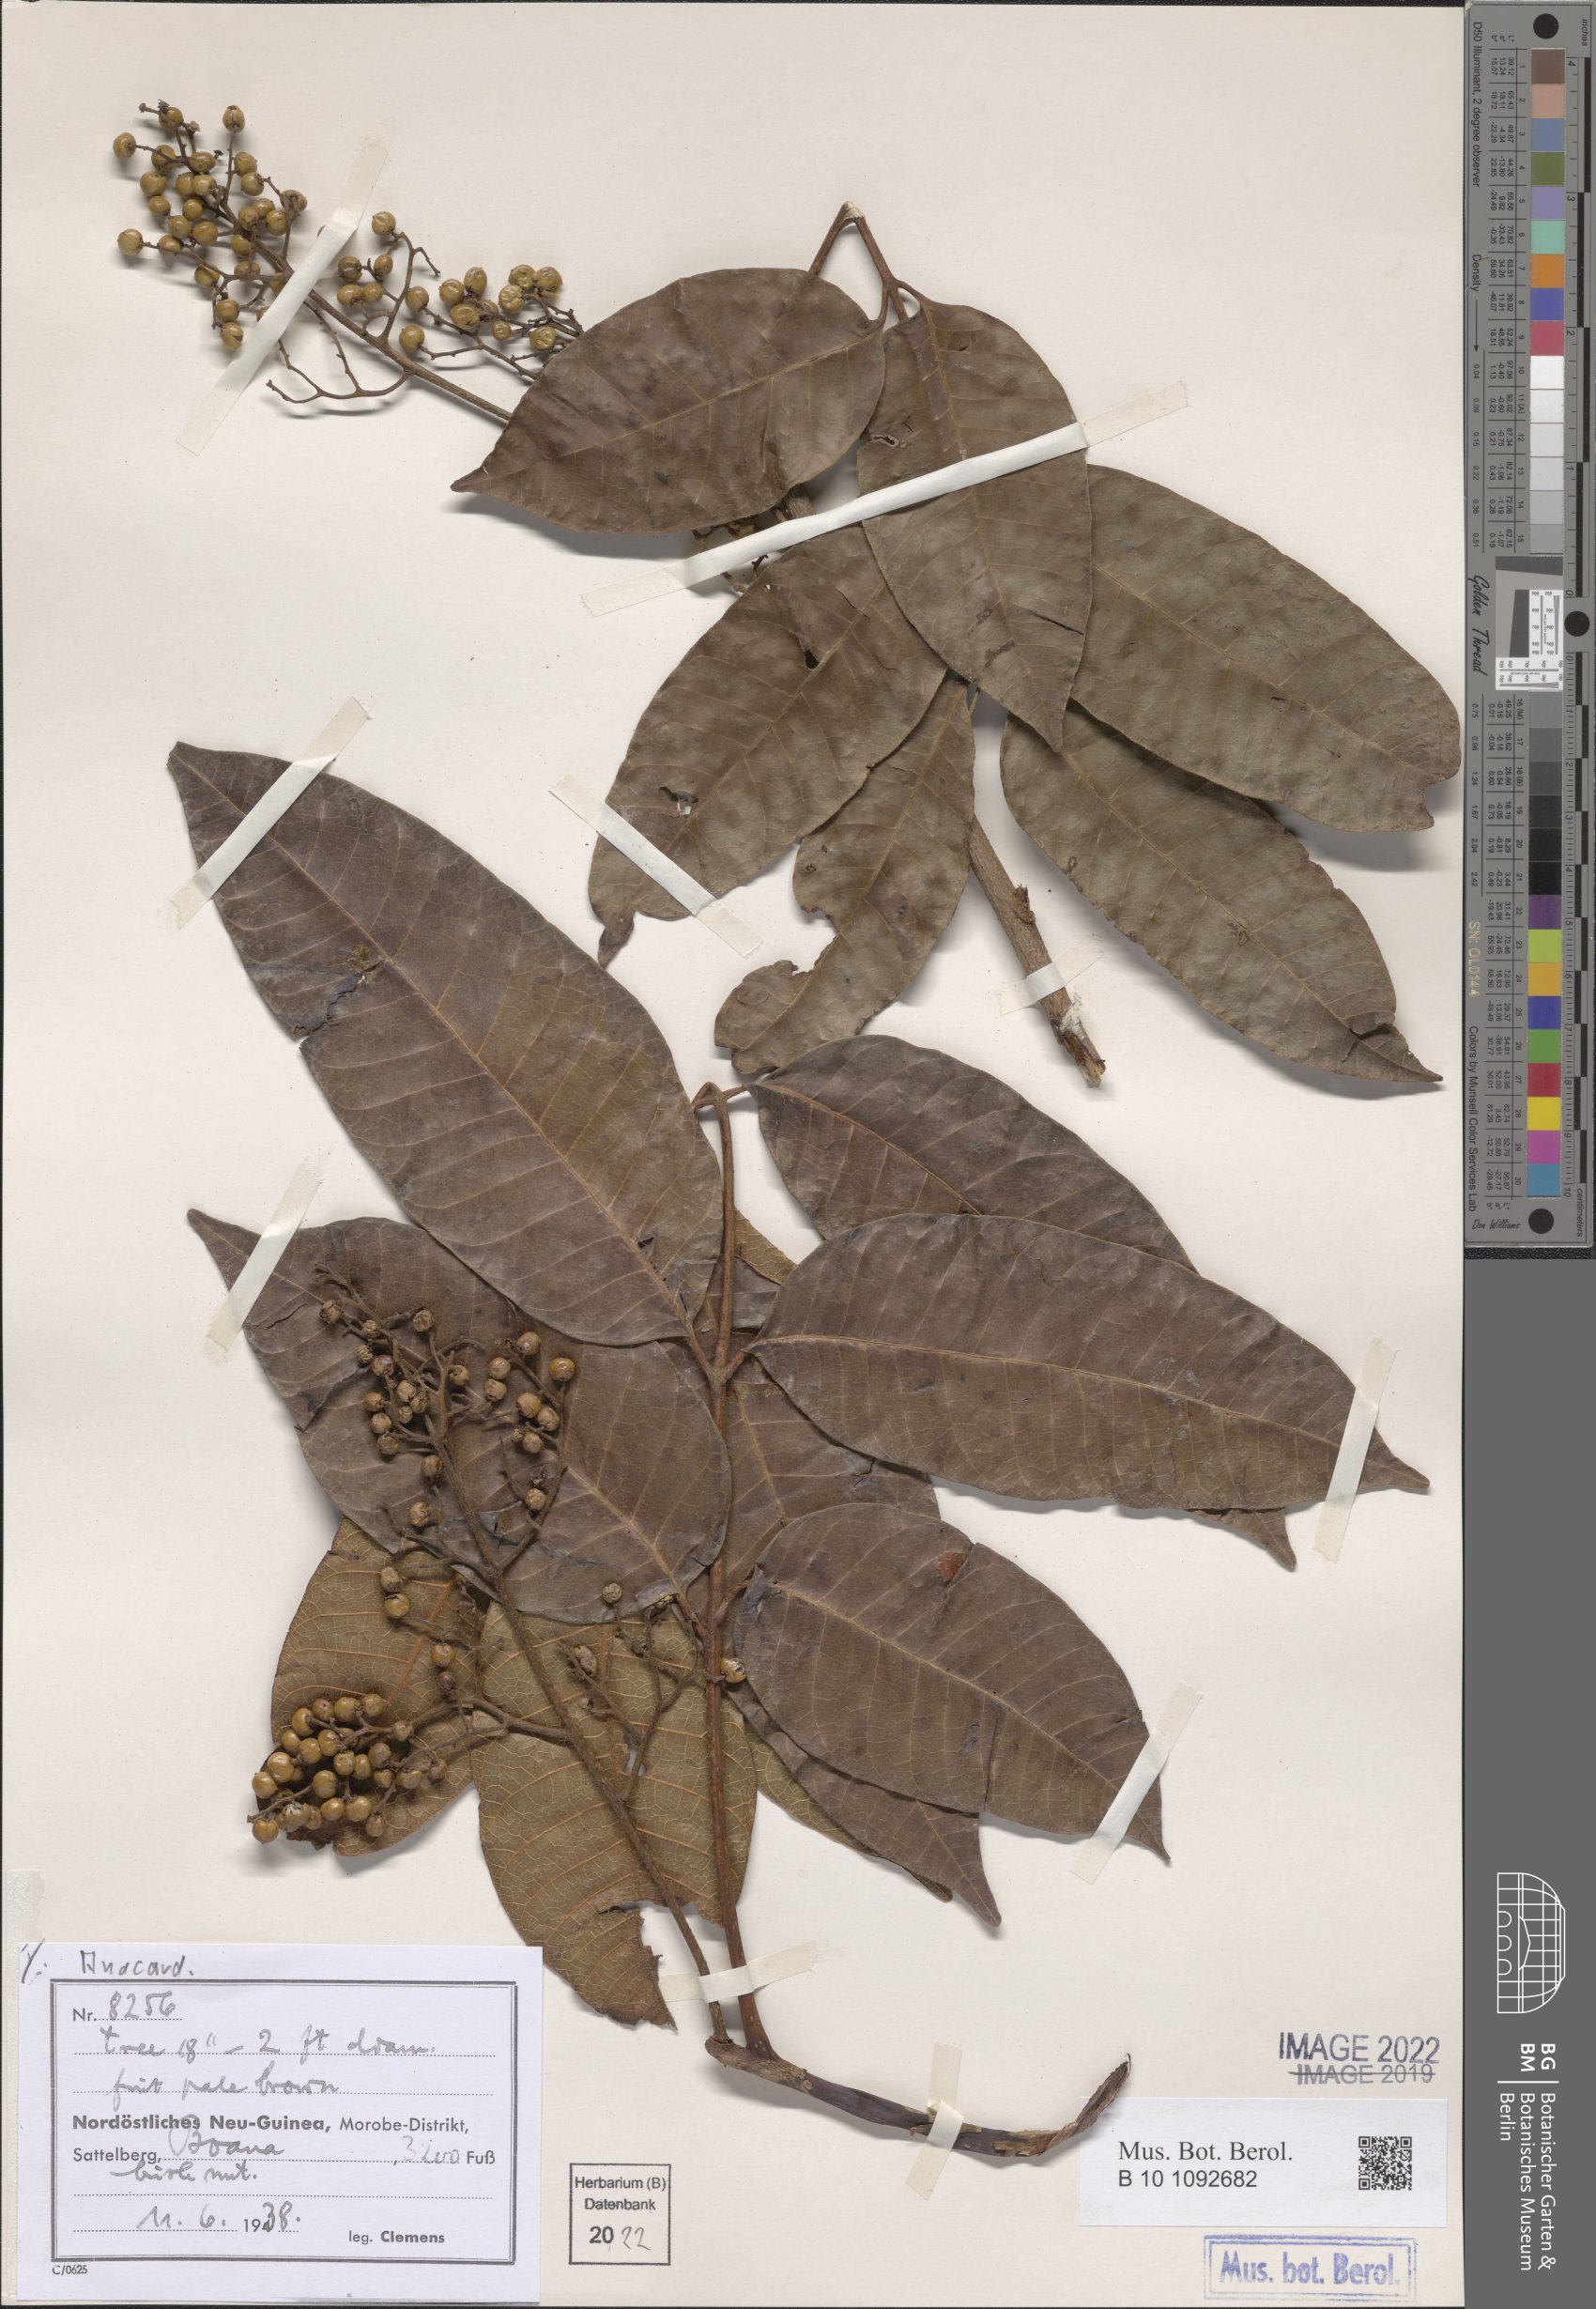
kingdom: Plantae
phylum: Tracheophyta
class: Magnoliopsida
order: Sapindales
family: Anacardiaceae
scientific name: Anacardiaceae
